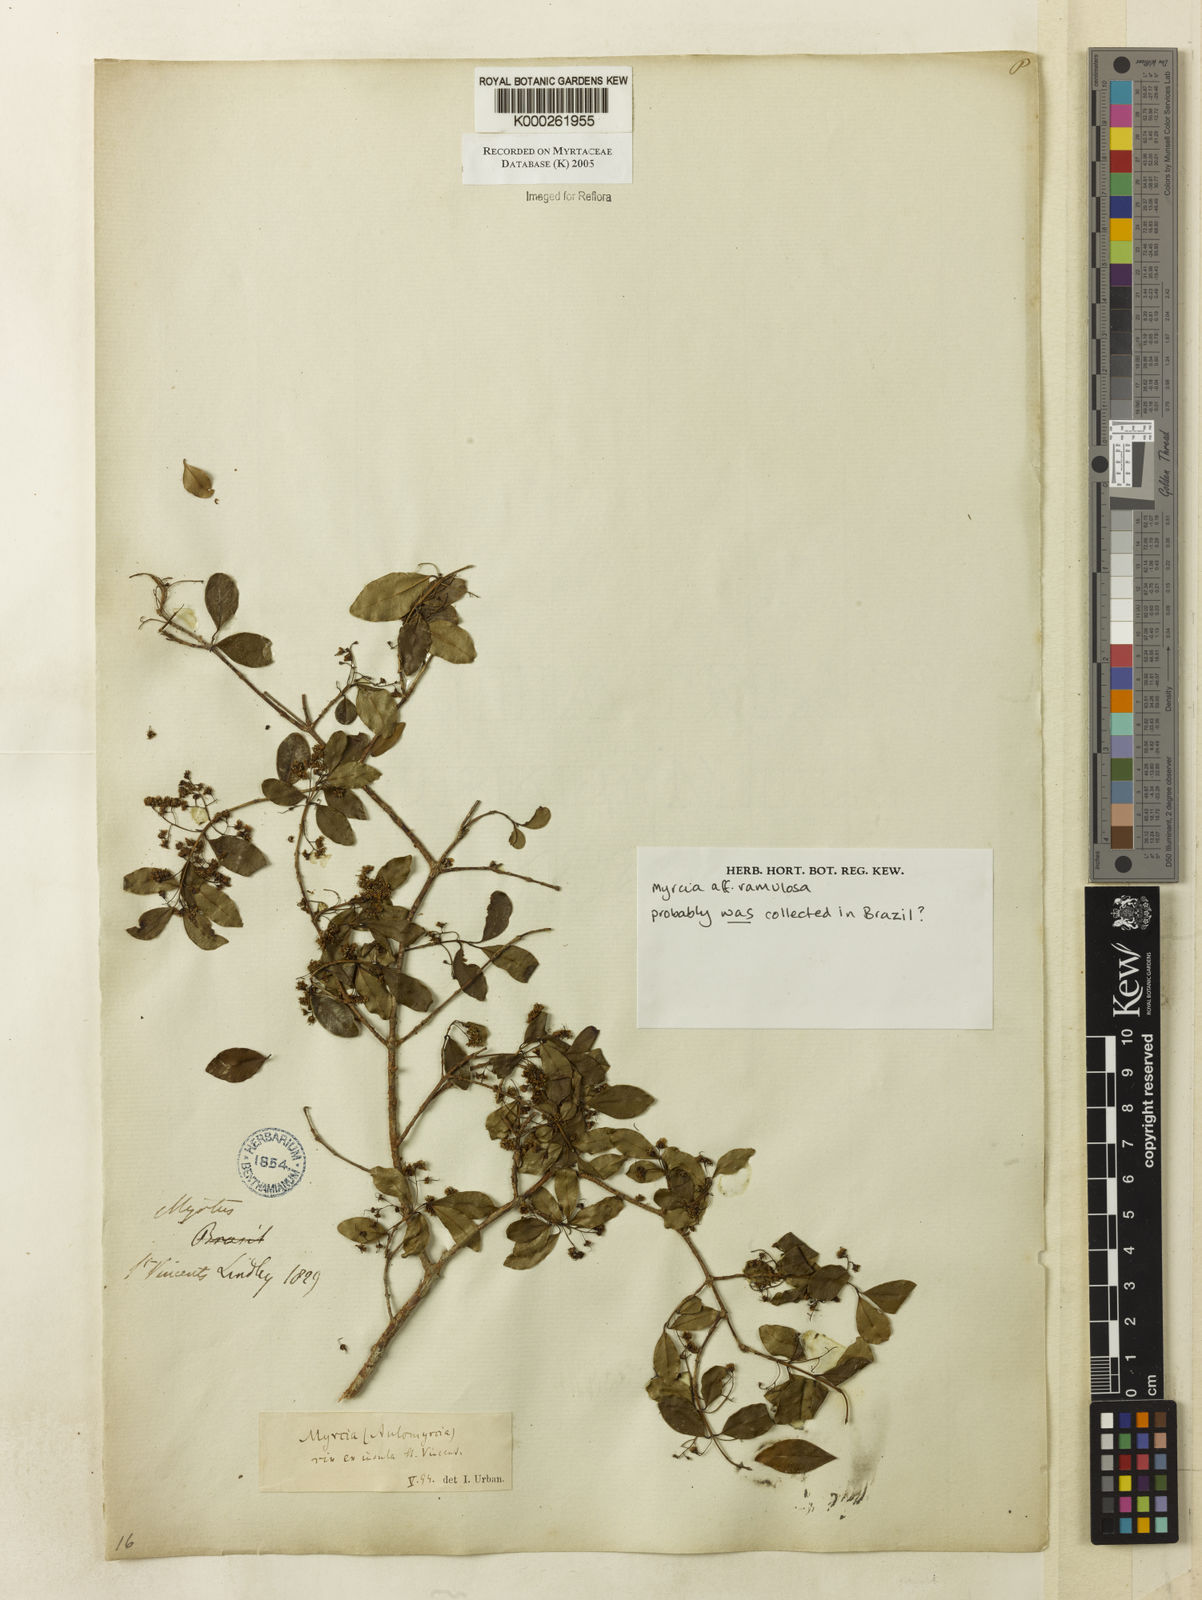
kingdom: Plantae
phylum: Tracheophyta
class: Magnoliopsida
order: Myrtales
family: Myrtaceae
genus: Myrcia
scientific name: Myrcia selloi
